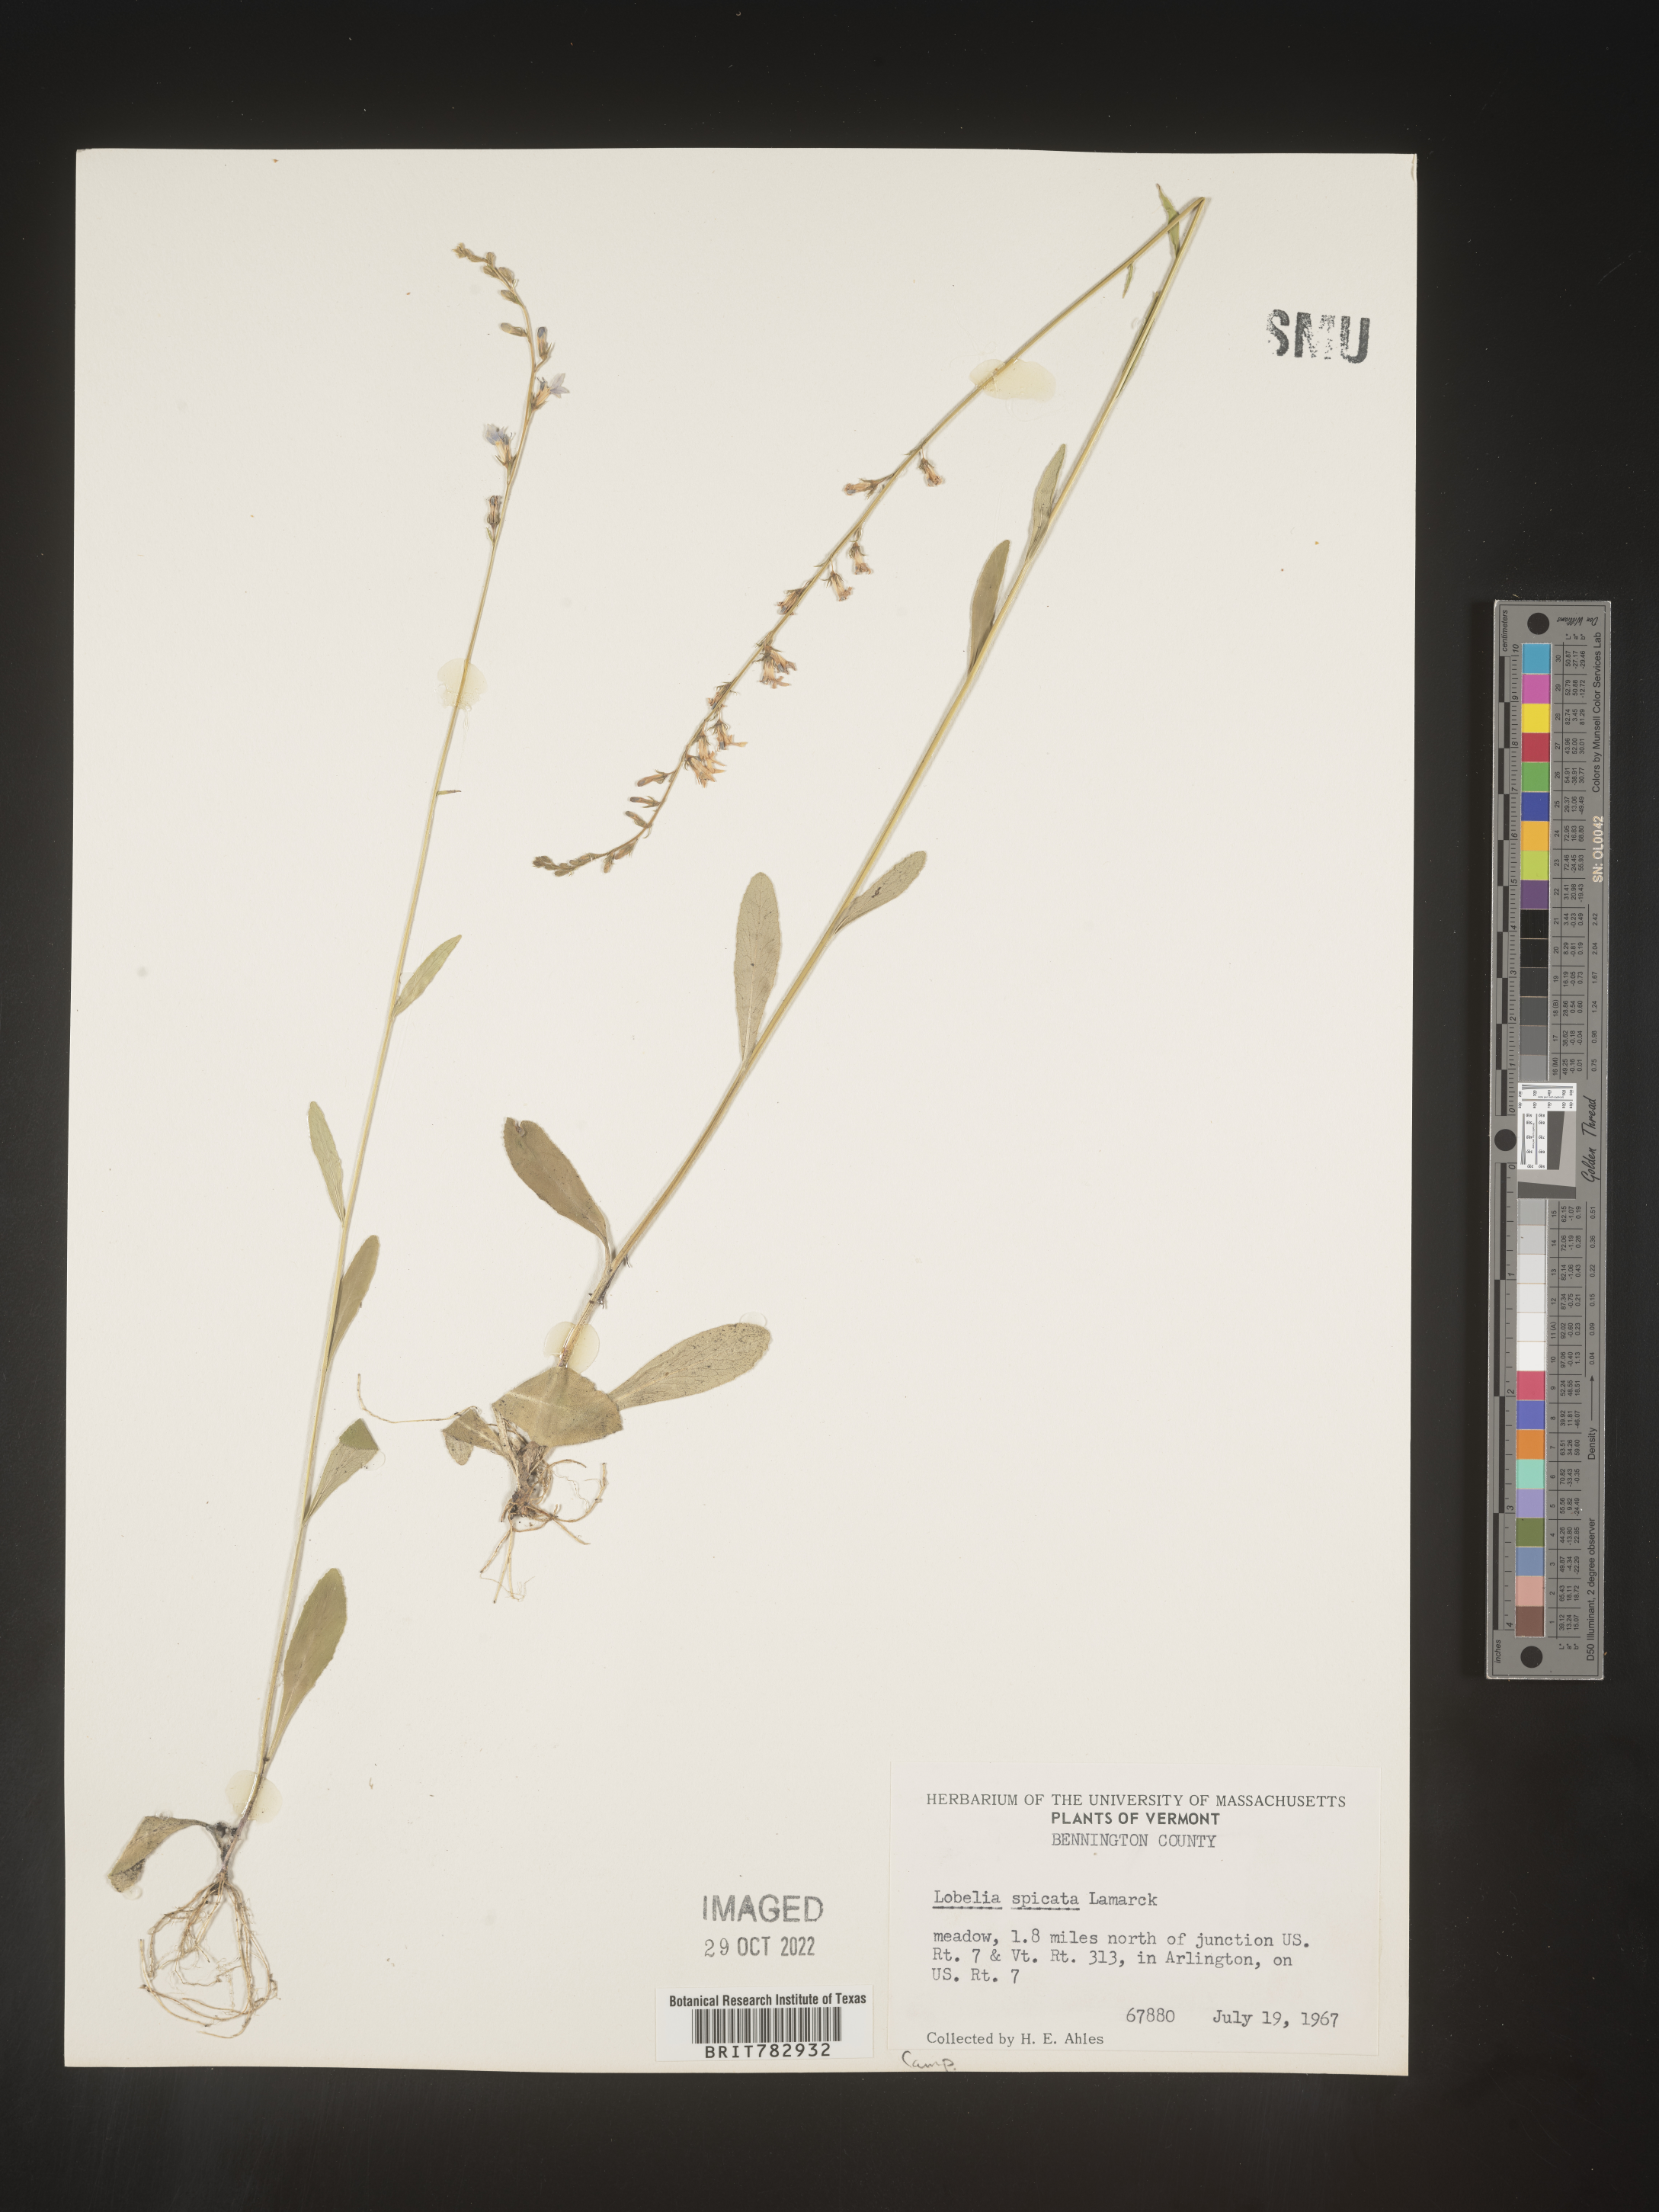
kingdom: Plantae
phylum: Tracheophyta
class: Magnoliopsida
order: Asterales
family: Campanulaceae
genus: Lobelia
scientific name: Lobelia spicata
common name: Pale-spike lobelia
